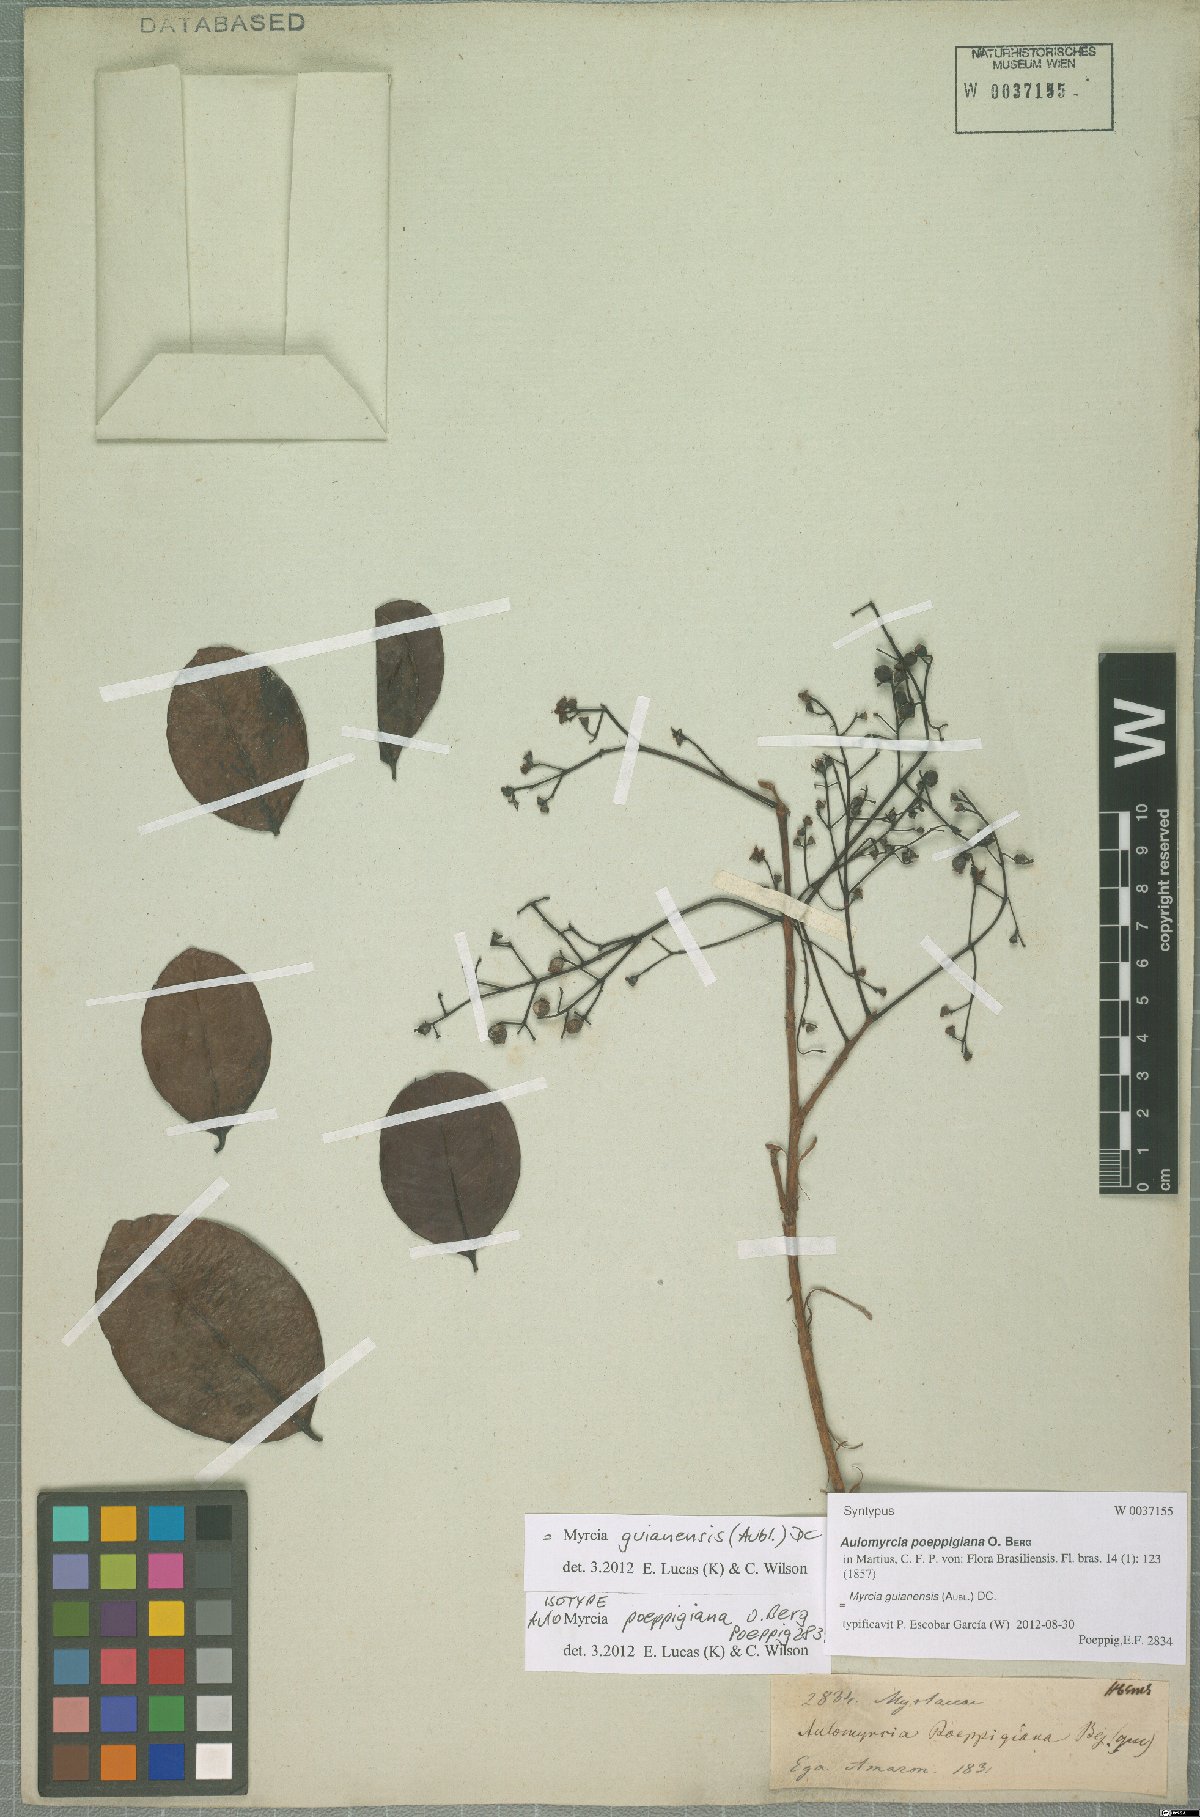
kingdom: Plantae
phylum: Tracheophyta
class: Magnoliopsida
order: Myrtales
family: Myrtaceae
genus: Myrcia
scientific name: Myrcia guianensis
